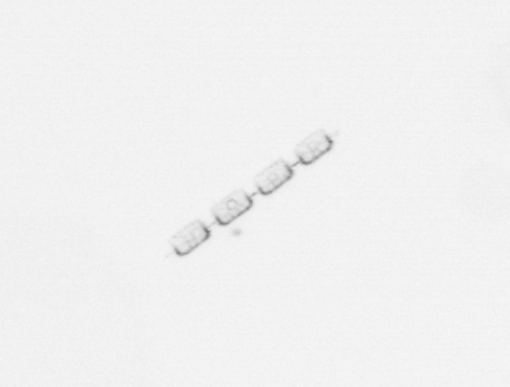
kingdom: Chromista
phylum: Ochrophyta
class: Bacillariophyceae
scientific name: Bacillariophyceae
